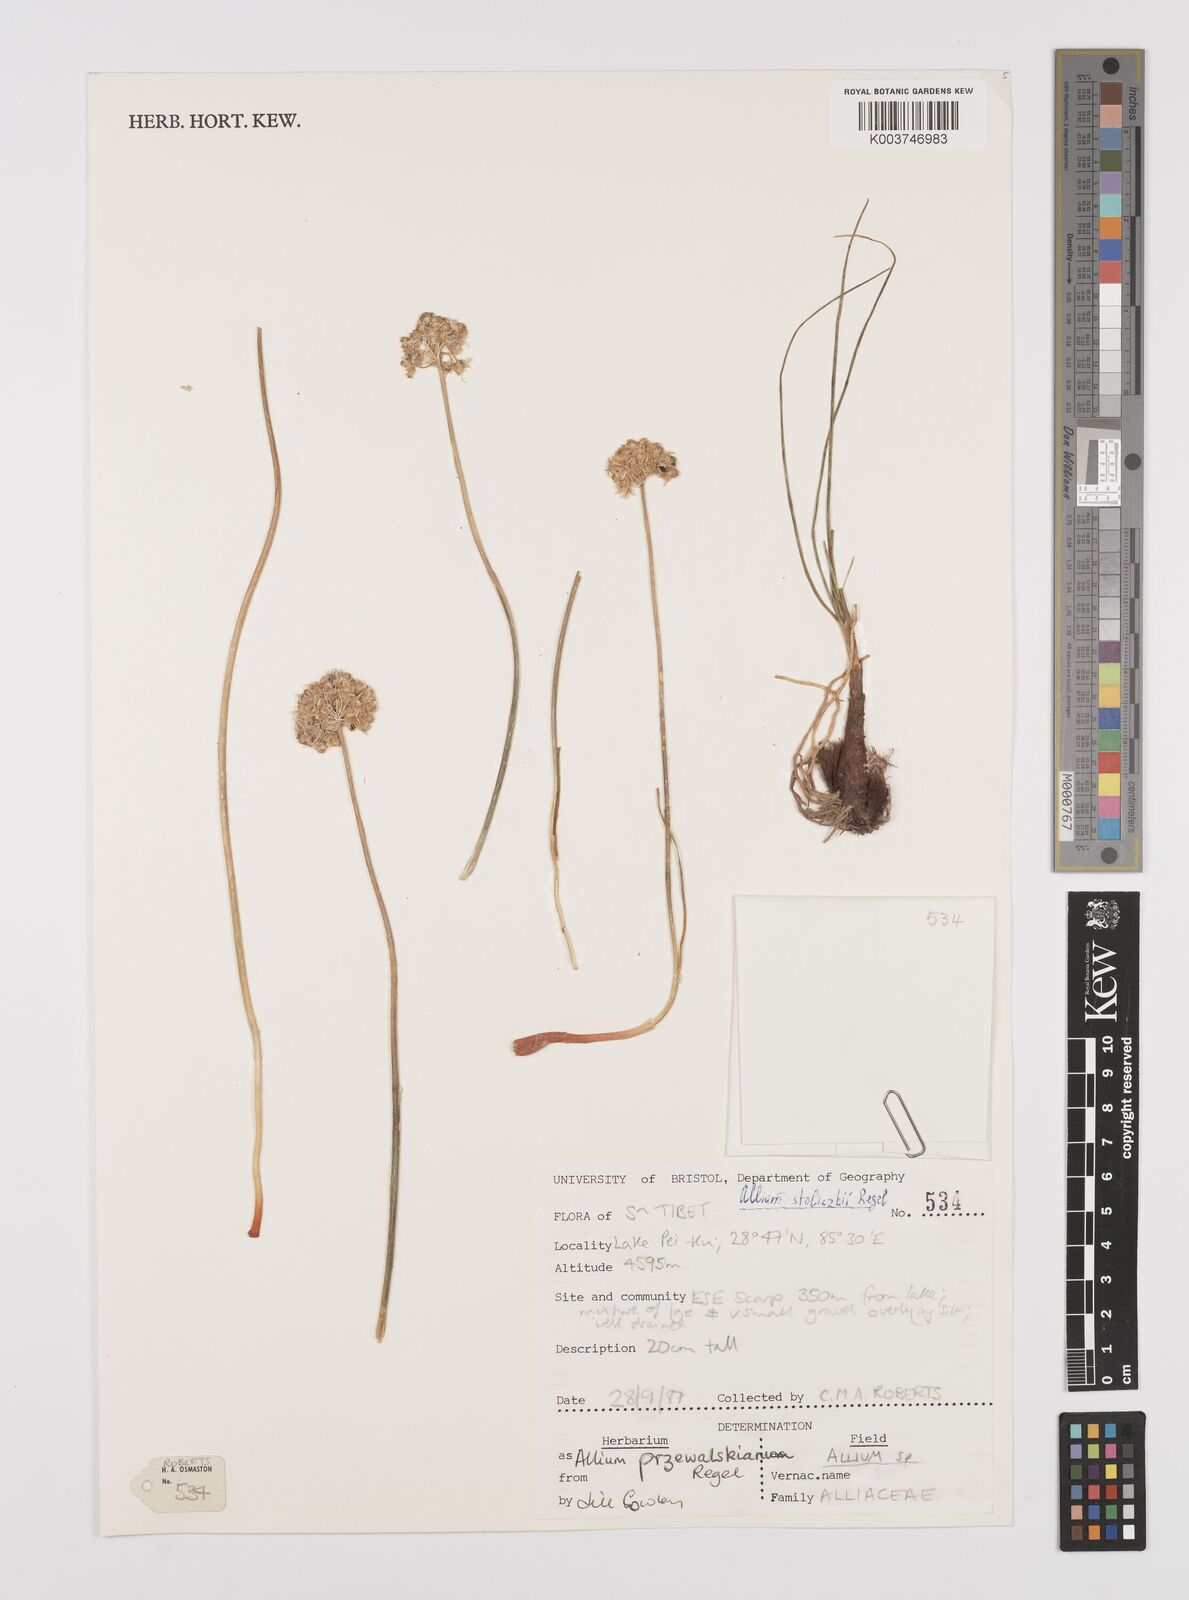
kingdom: Plantae
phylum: Tracheophyta
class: Liliopsida
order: Asparagales
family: Amaryllidaceae
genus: Allium
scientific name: Allium przewalskianum
